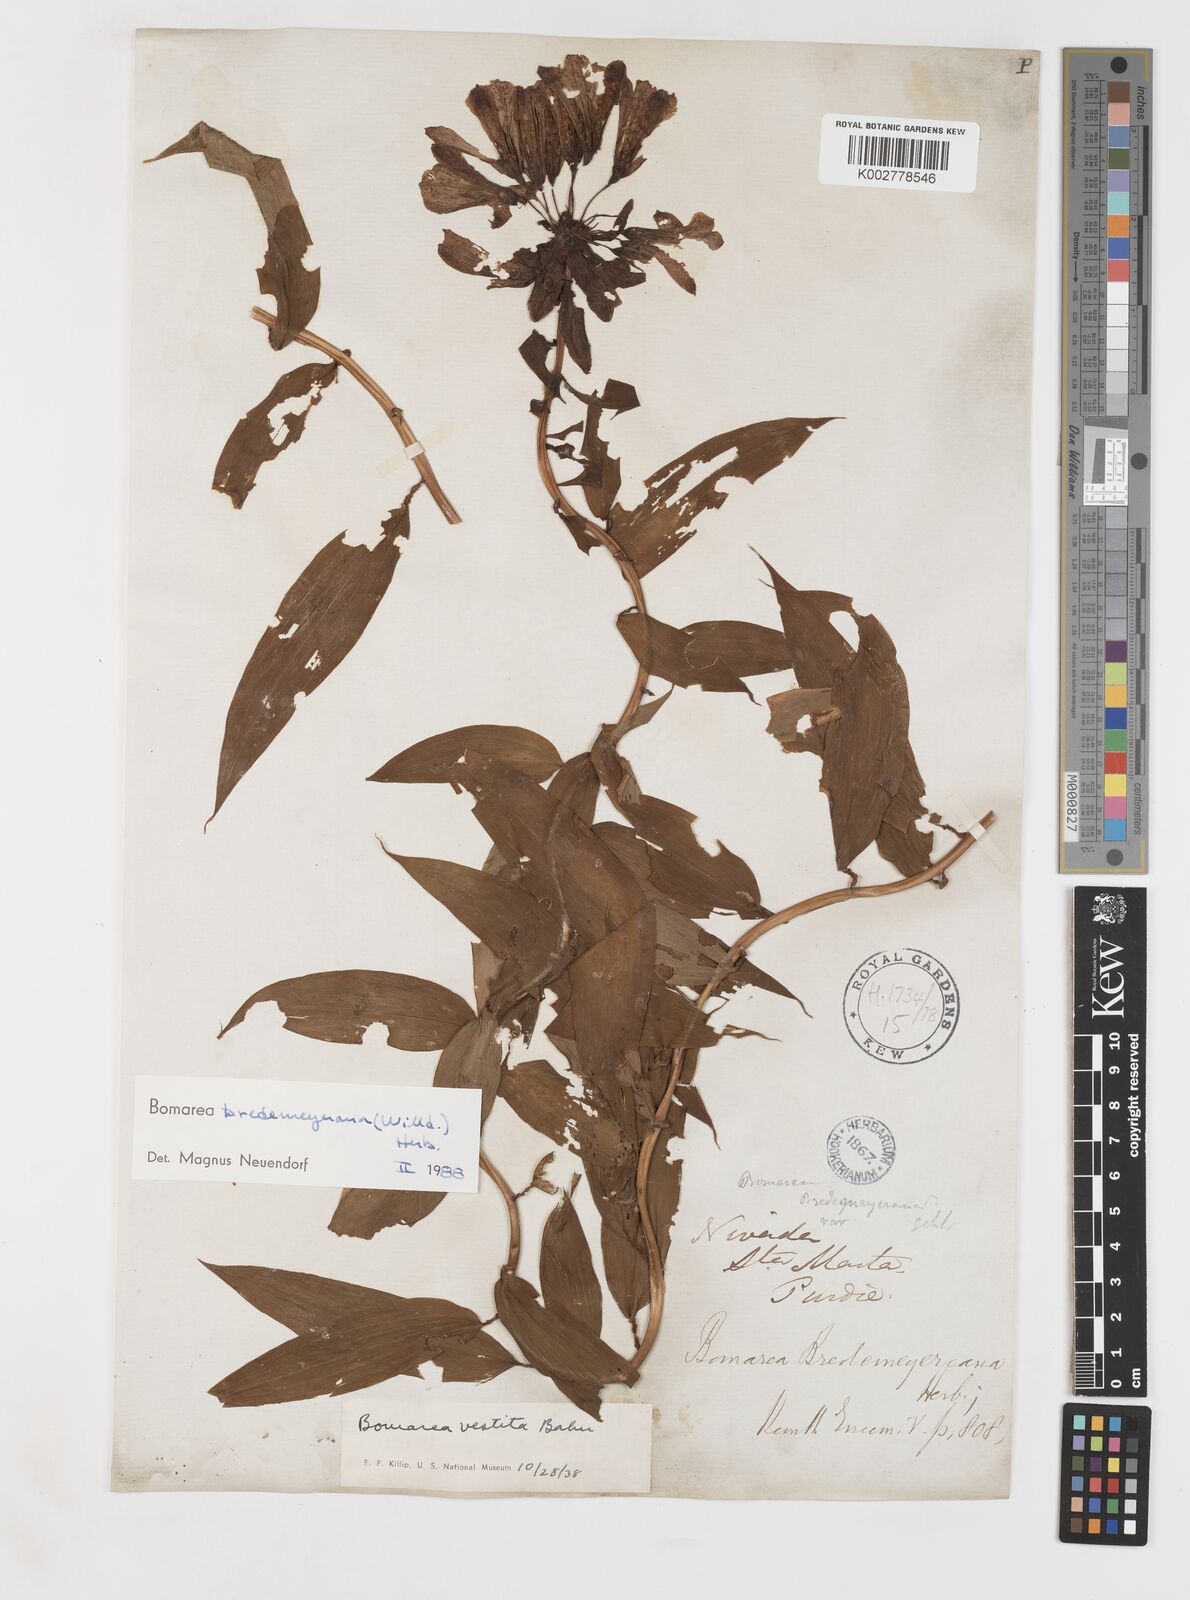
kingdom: Plantae
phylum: Tracheophyta
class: Liliopsida
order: Liliales
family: Alstroemeriaceae
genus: Bomarea
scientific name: Bomarea bredemeyeriana
